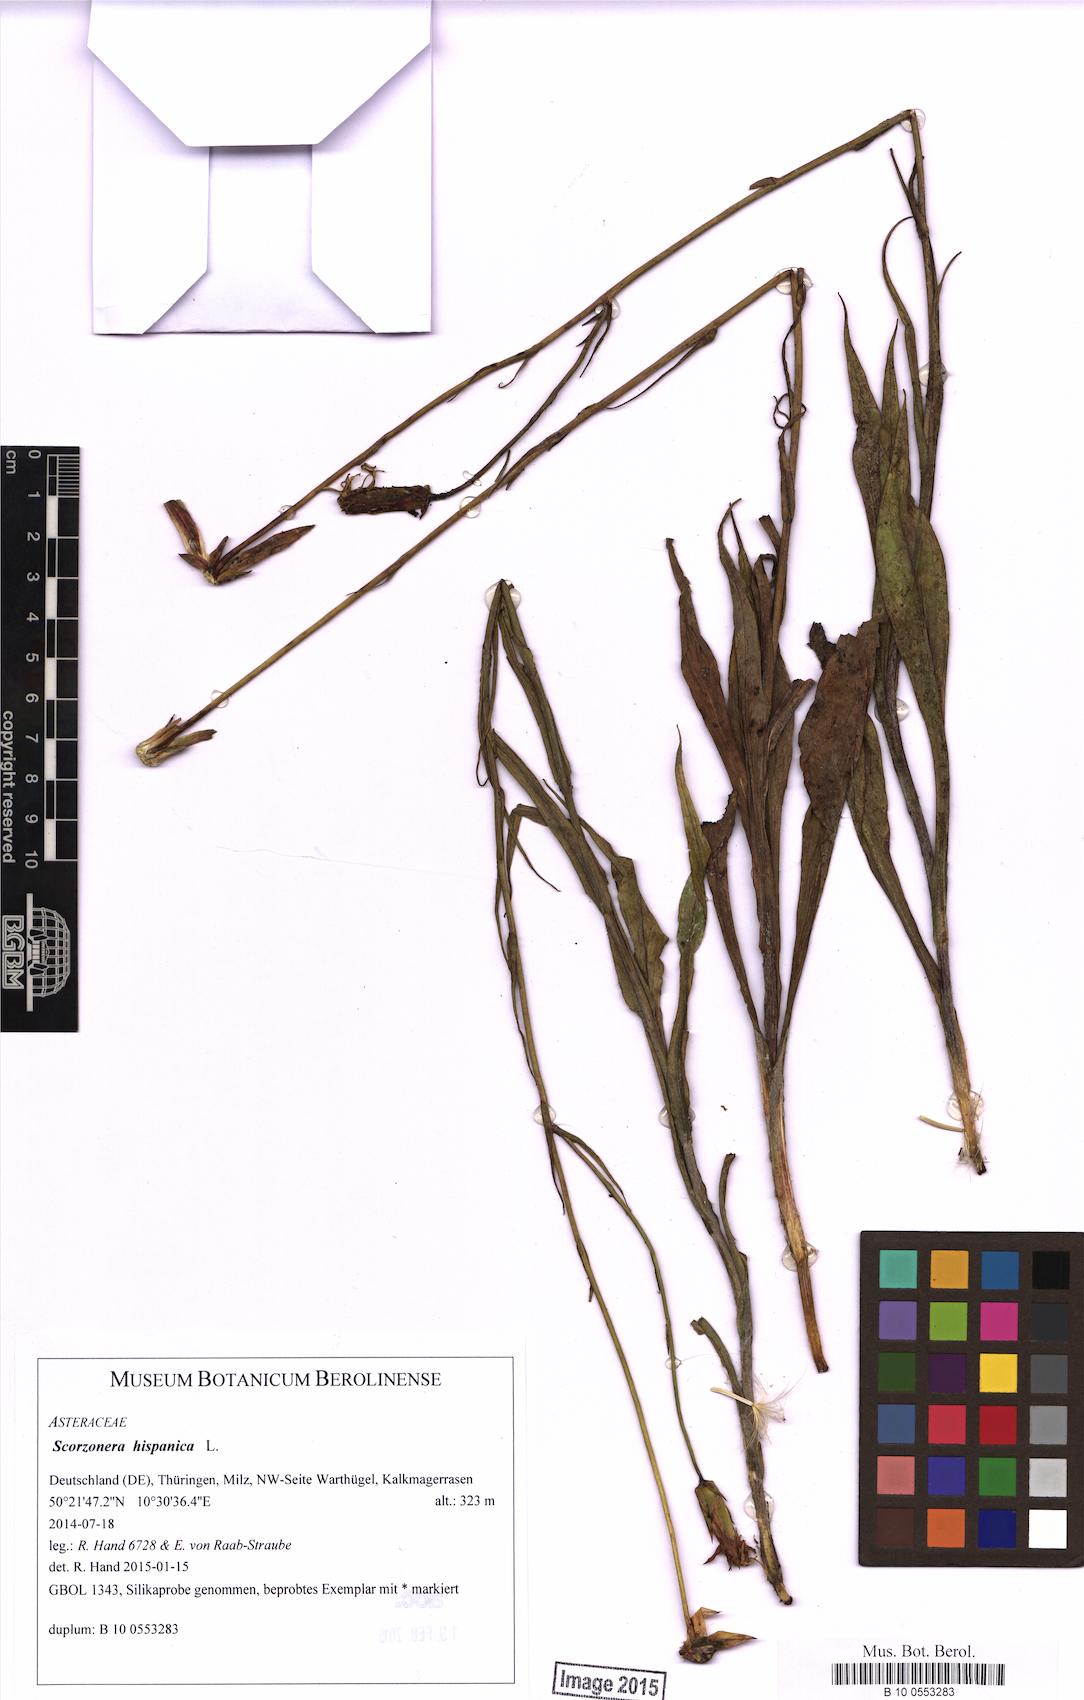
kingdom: Plantae
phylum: Tracheophyta
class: Magnoliopsida
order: Asterales
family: Asteraceae
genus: Pseudopodospermum
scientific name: Pseudopodospermum hispanicum
